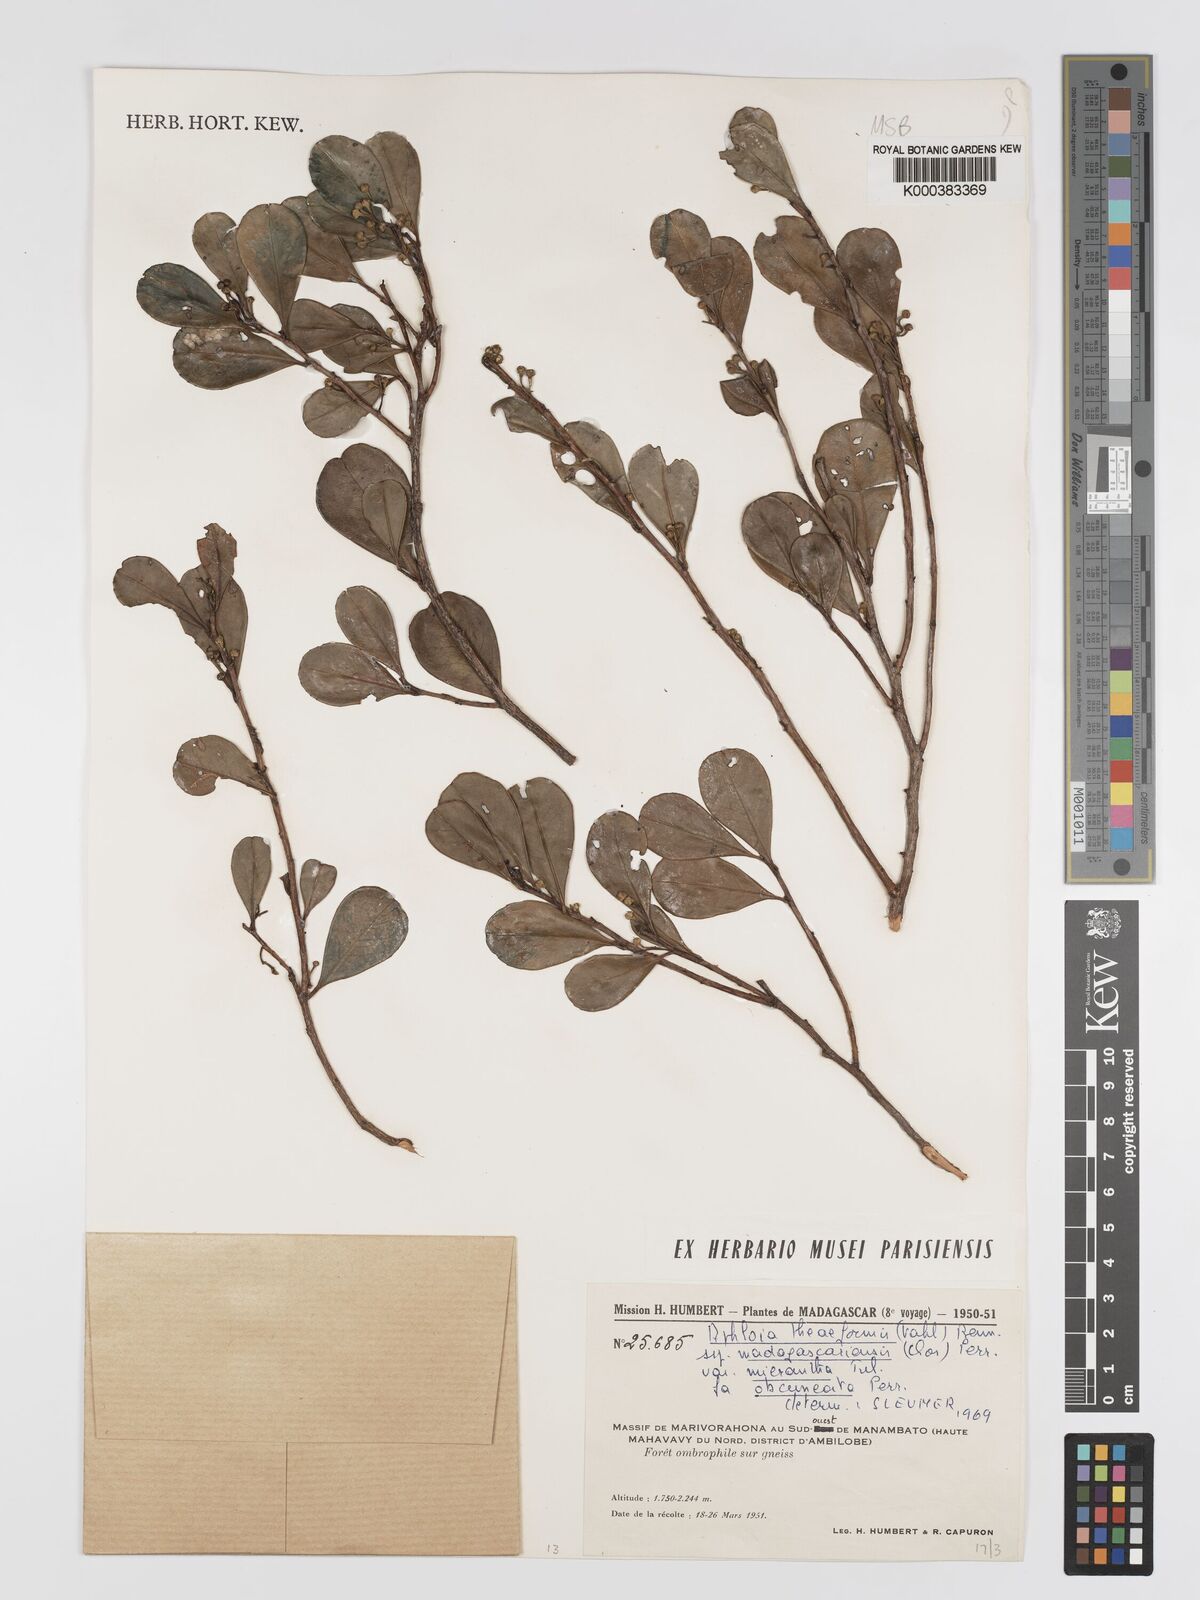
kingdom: Plantae
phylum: Tracheophyta
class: Magnoliopsida
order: Crossosomatales
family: Aphloiaceae
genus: Aphloia
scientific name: Aphloia theiformis
